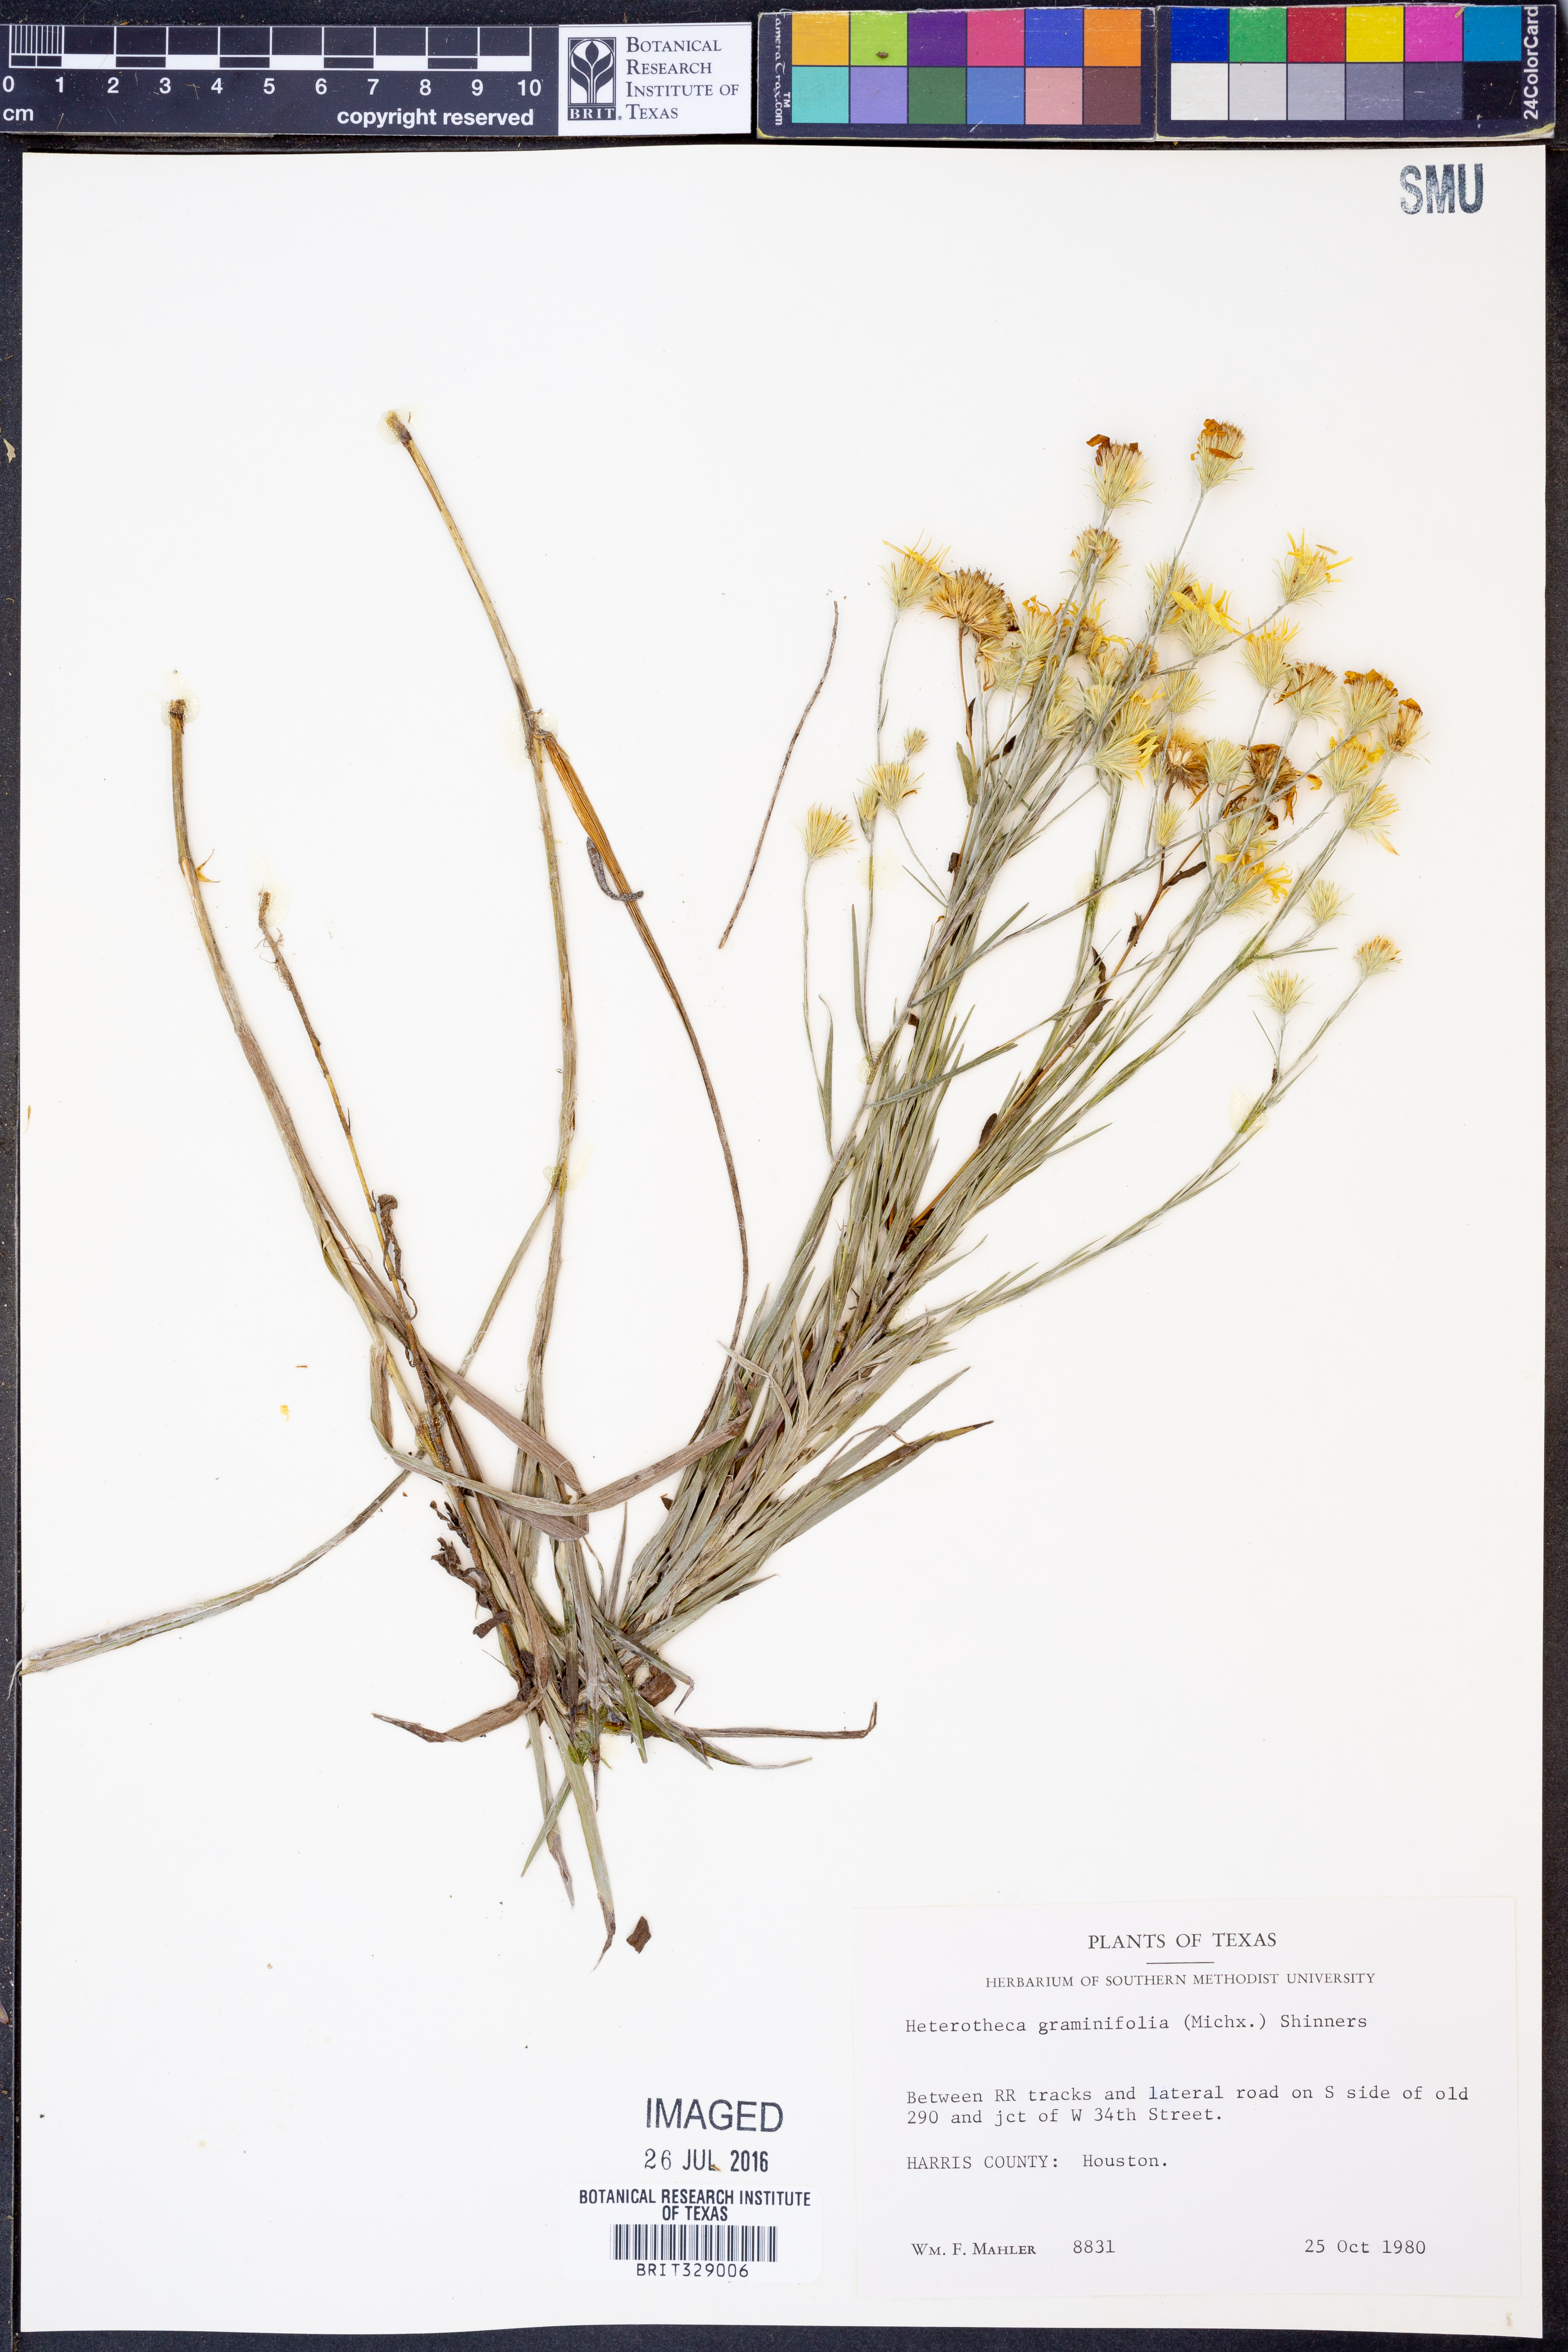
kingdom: Plantae
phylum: Tracheophyta
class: Magnoliopsida
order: Asterales
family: Asteraceae
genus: Pityopsis
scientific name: Pityopsis microcephala
